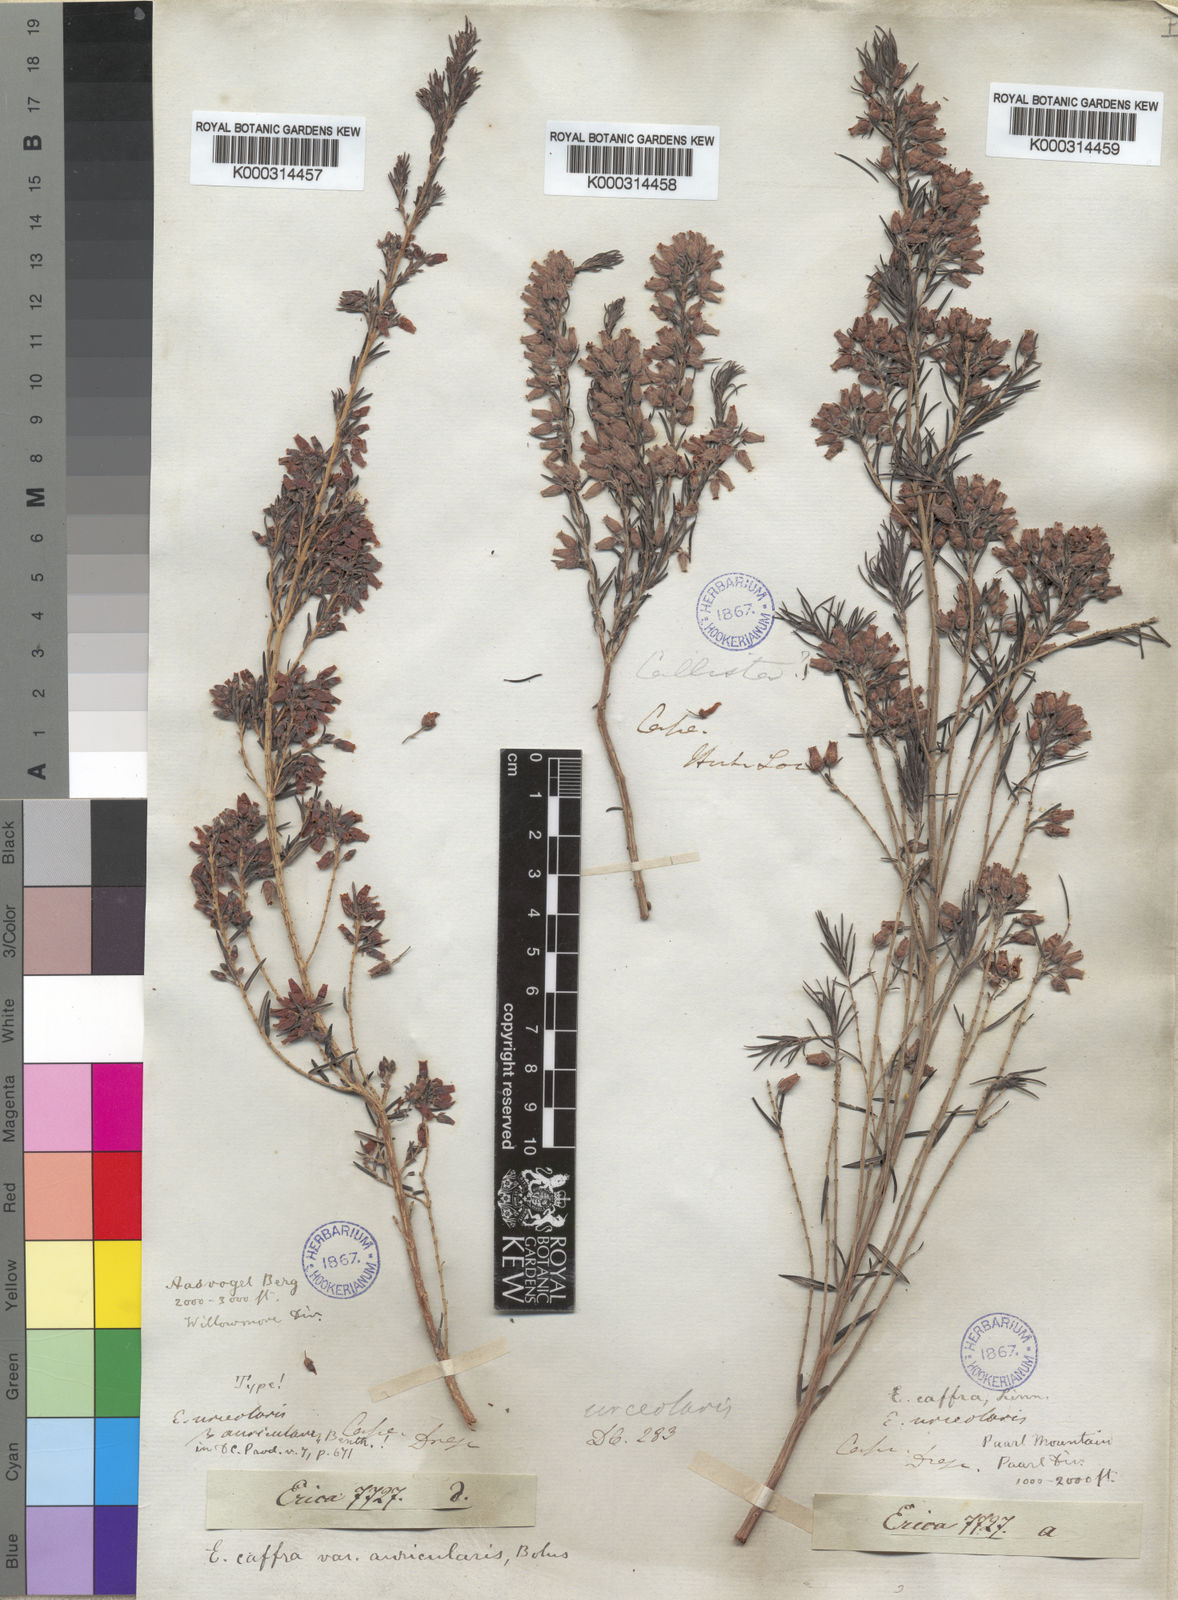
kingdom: Plantae
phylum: Tracheophyta
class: Magnoliopsida
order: Ericales
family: Ericaceae
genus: Erica
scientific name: Erica caffra
